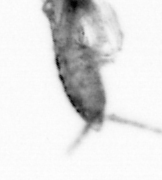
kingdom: Animalia
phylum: Arthropoda
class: Copepoda
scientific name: Copepoda
